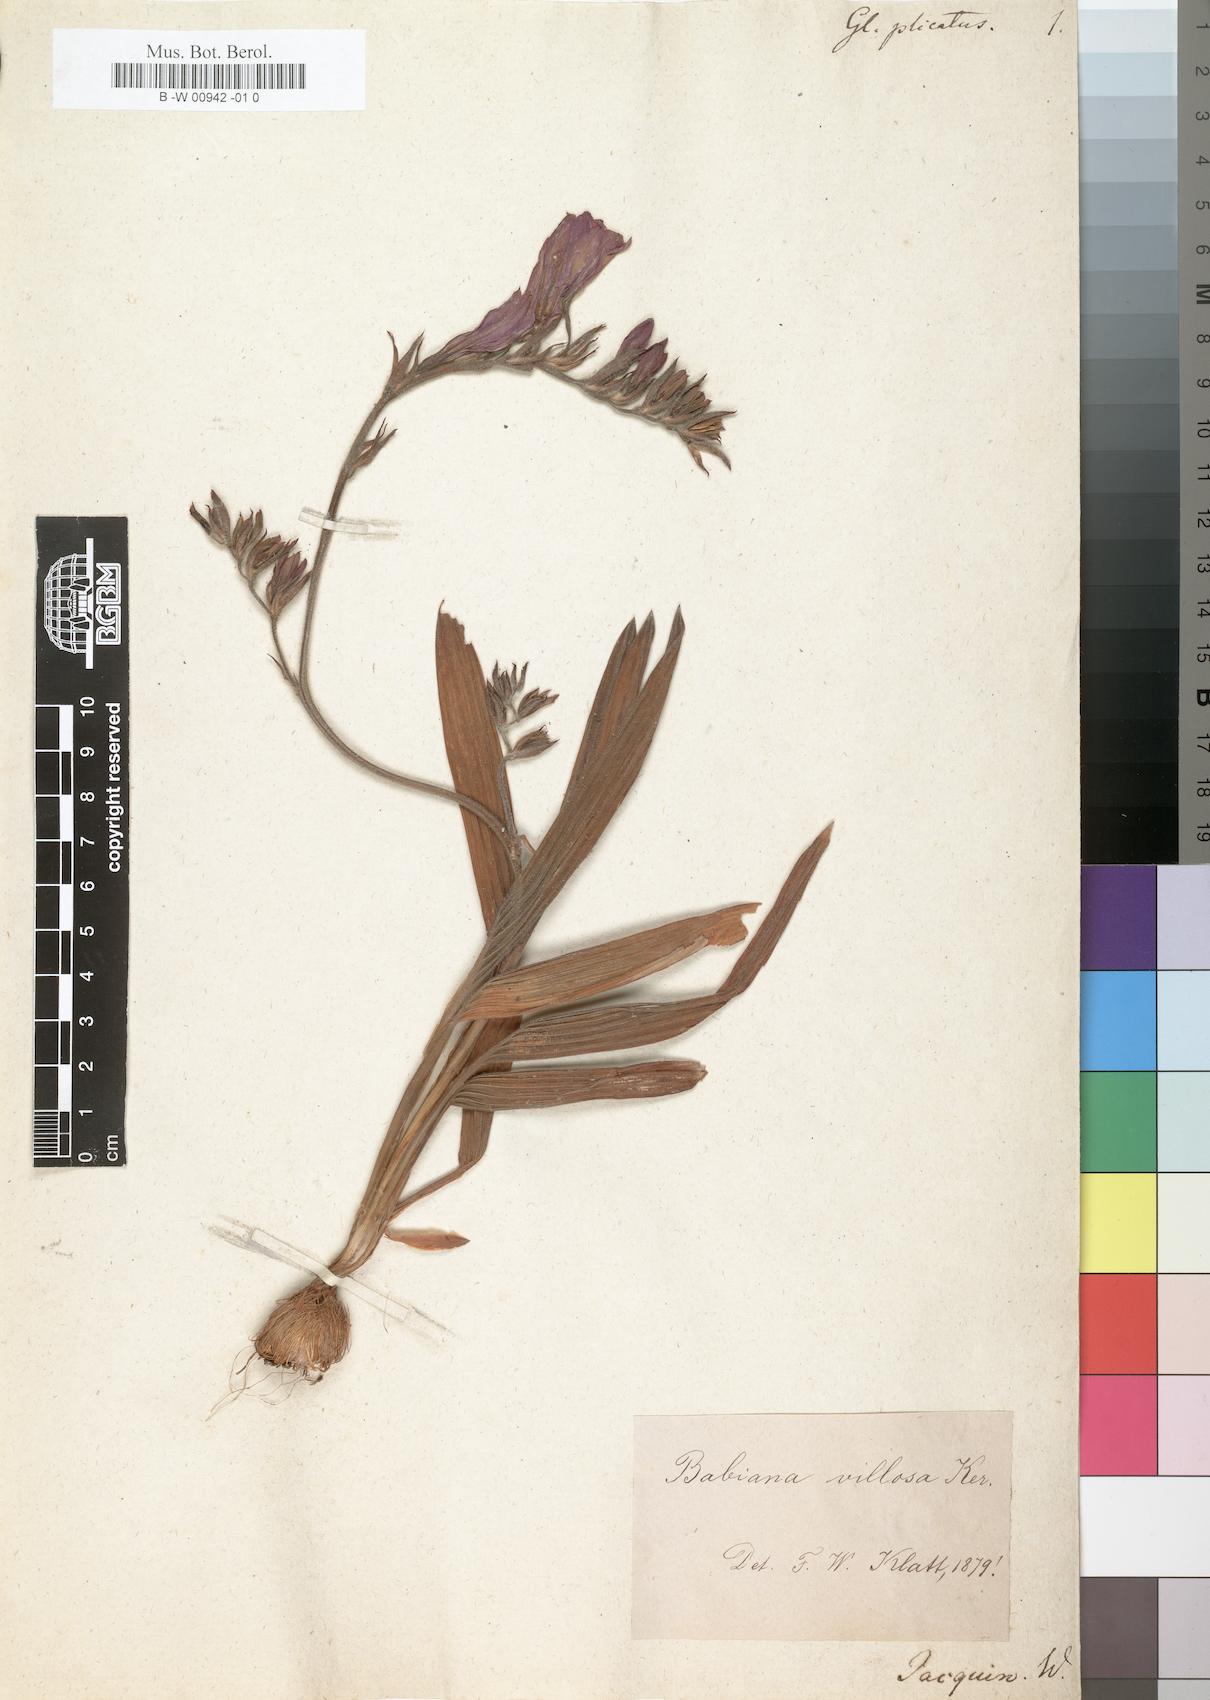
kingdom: Plantae
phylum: Tracheophyta
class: Liliopsida
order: Asparagales
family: Iridaceae
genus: Babiana
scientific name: Babiana
